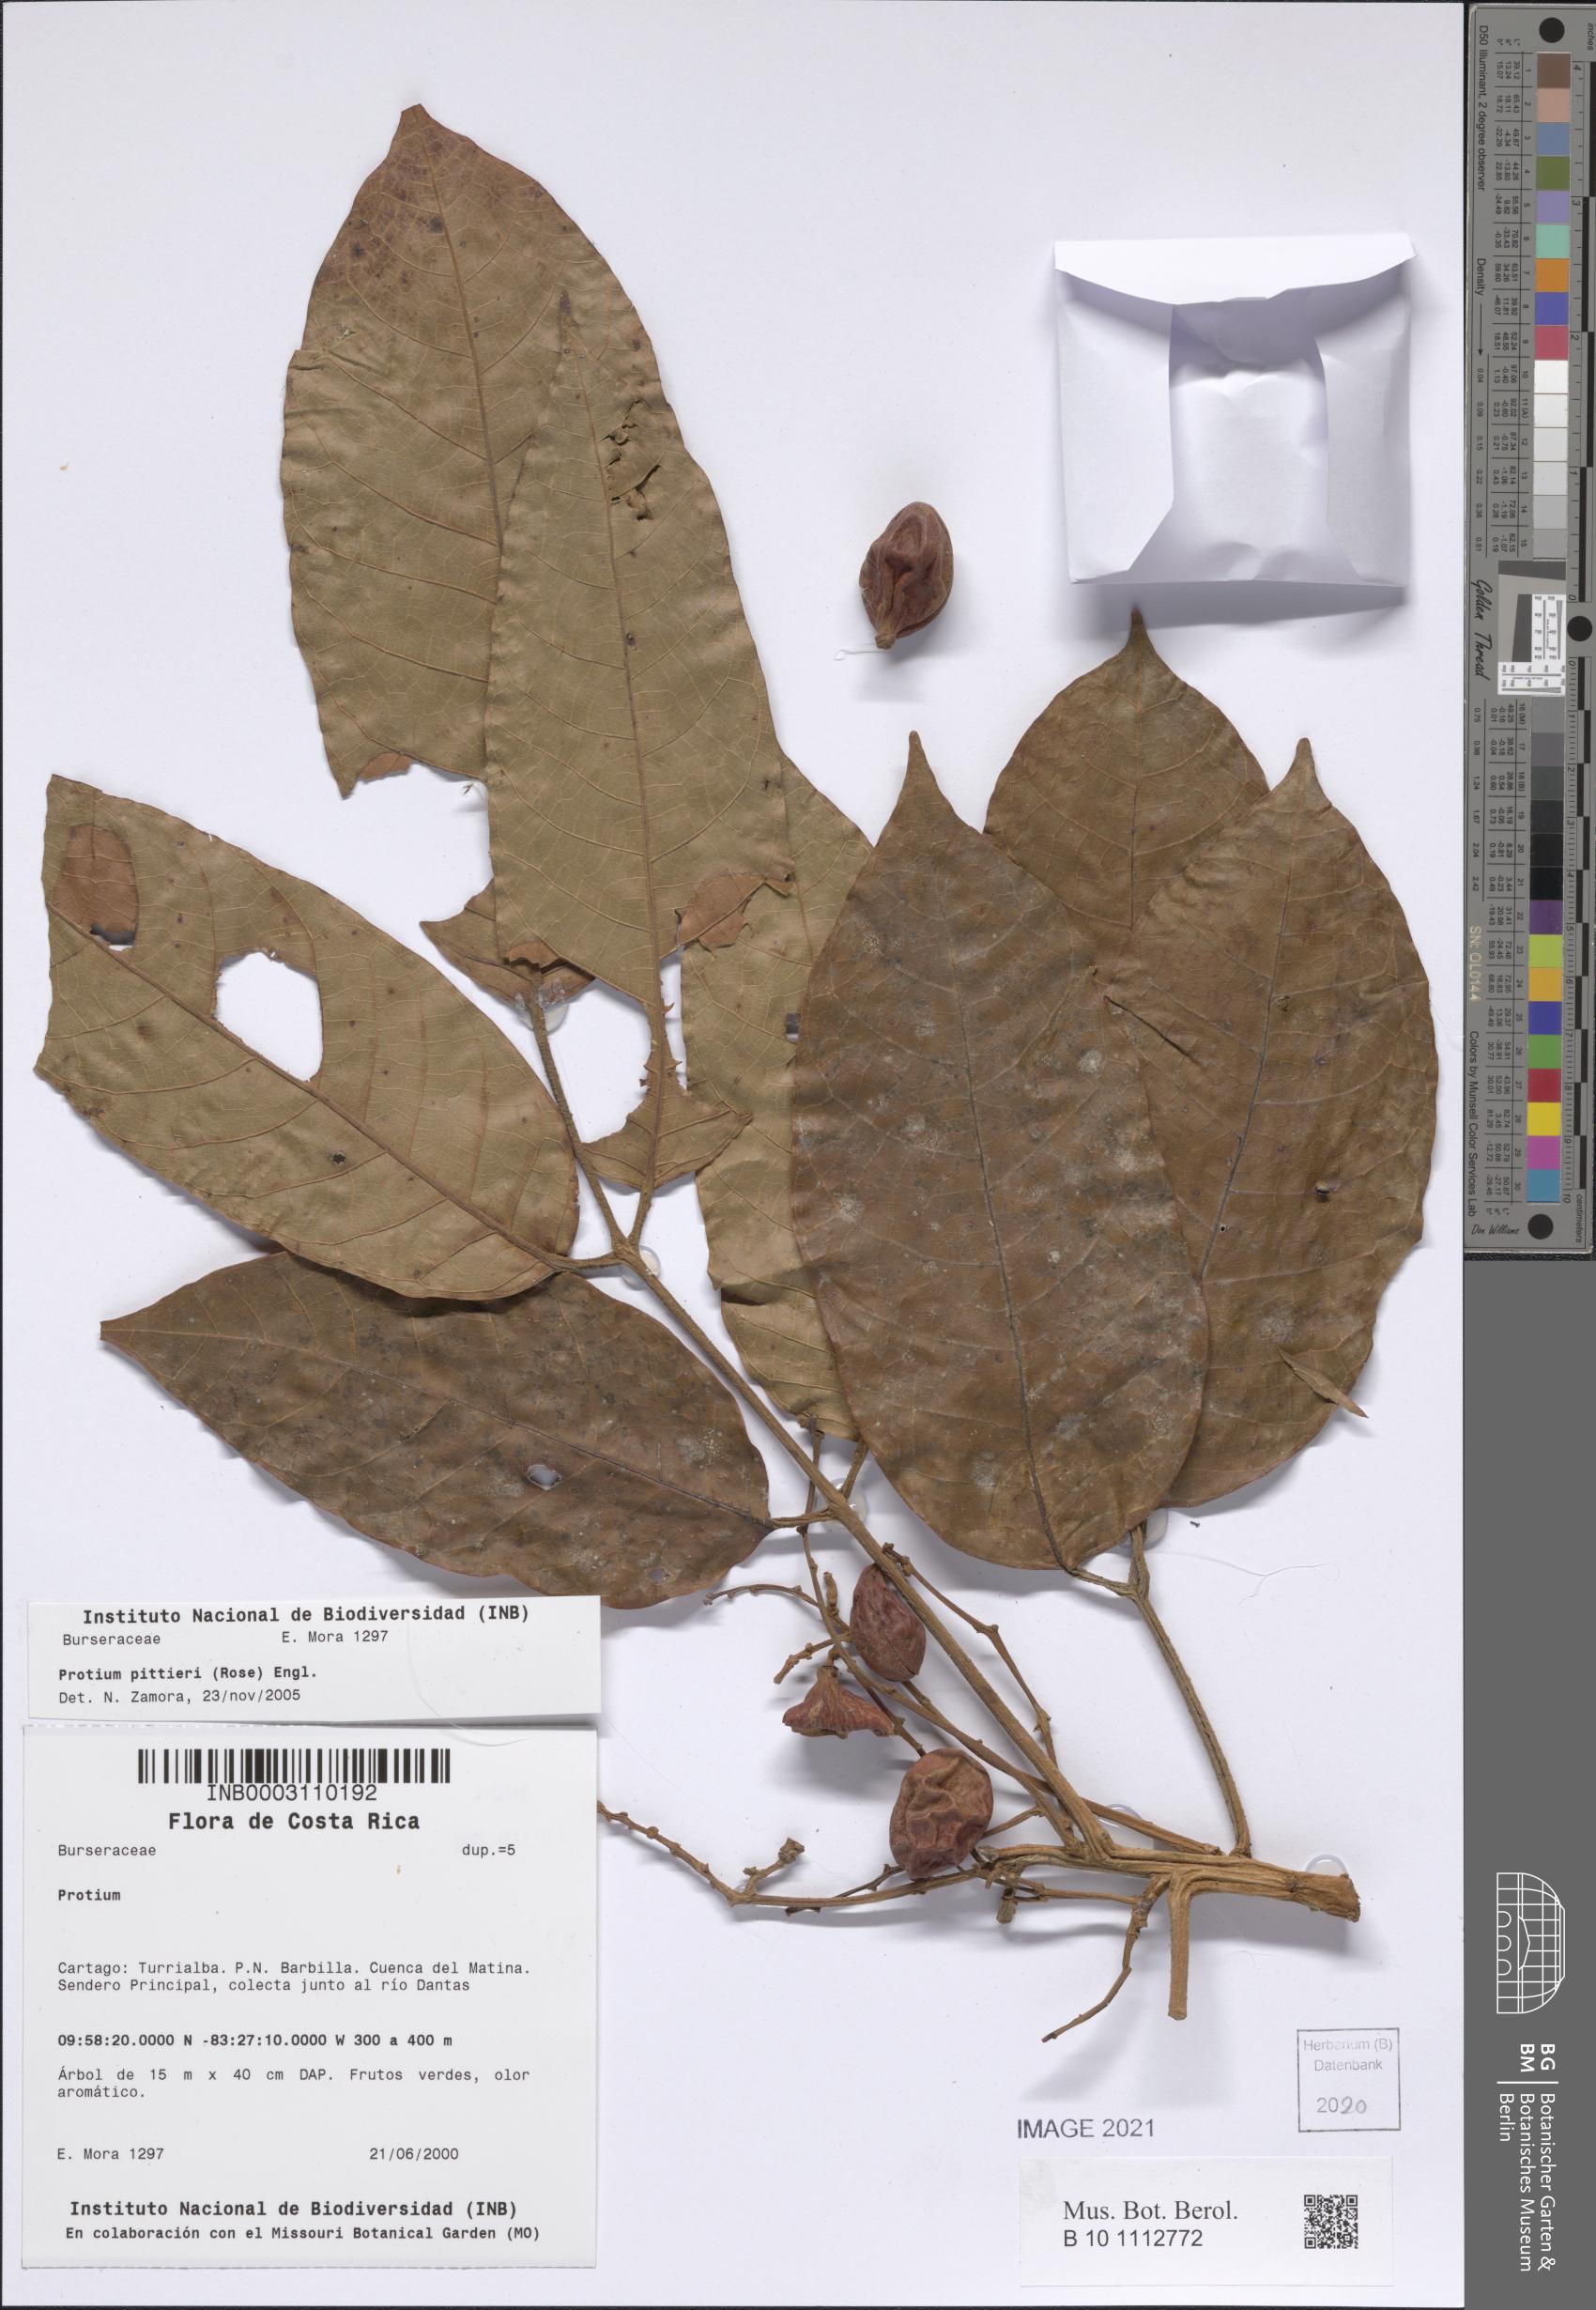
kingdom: Plantae
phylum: Tracheophyta
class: Magnoliopsida
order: Sapindales
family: Burseraceae
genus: Protium
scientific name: Protium pittieri
